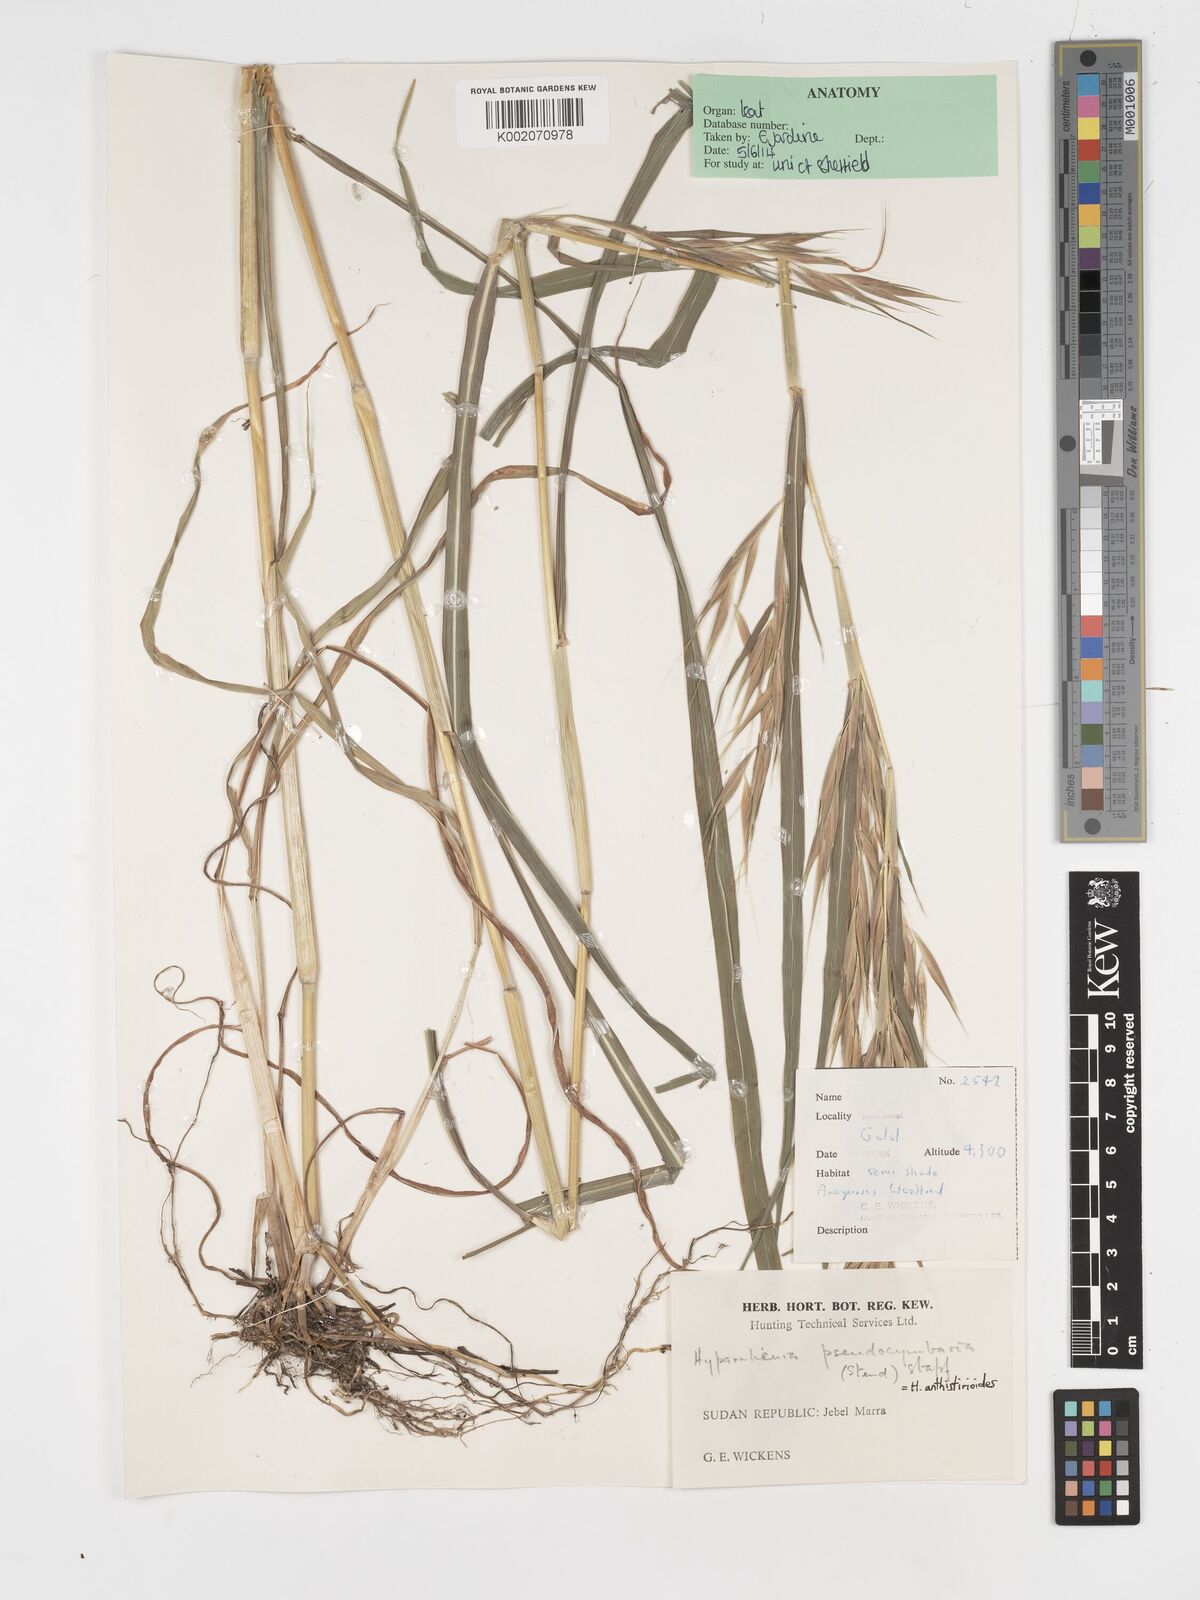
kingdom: Plantae
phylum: Tracheophyta
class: Liliopsida
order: Poales
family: Poaceae
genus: Hyparrhenia
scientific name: Hyparrhenia anthistirioides
